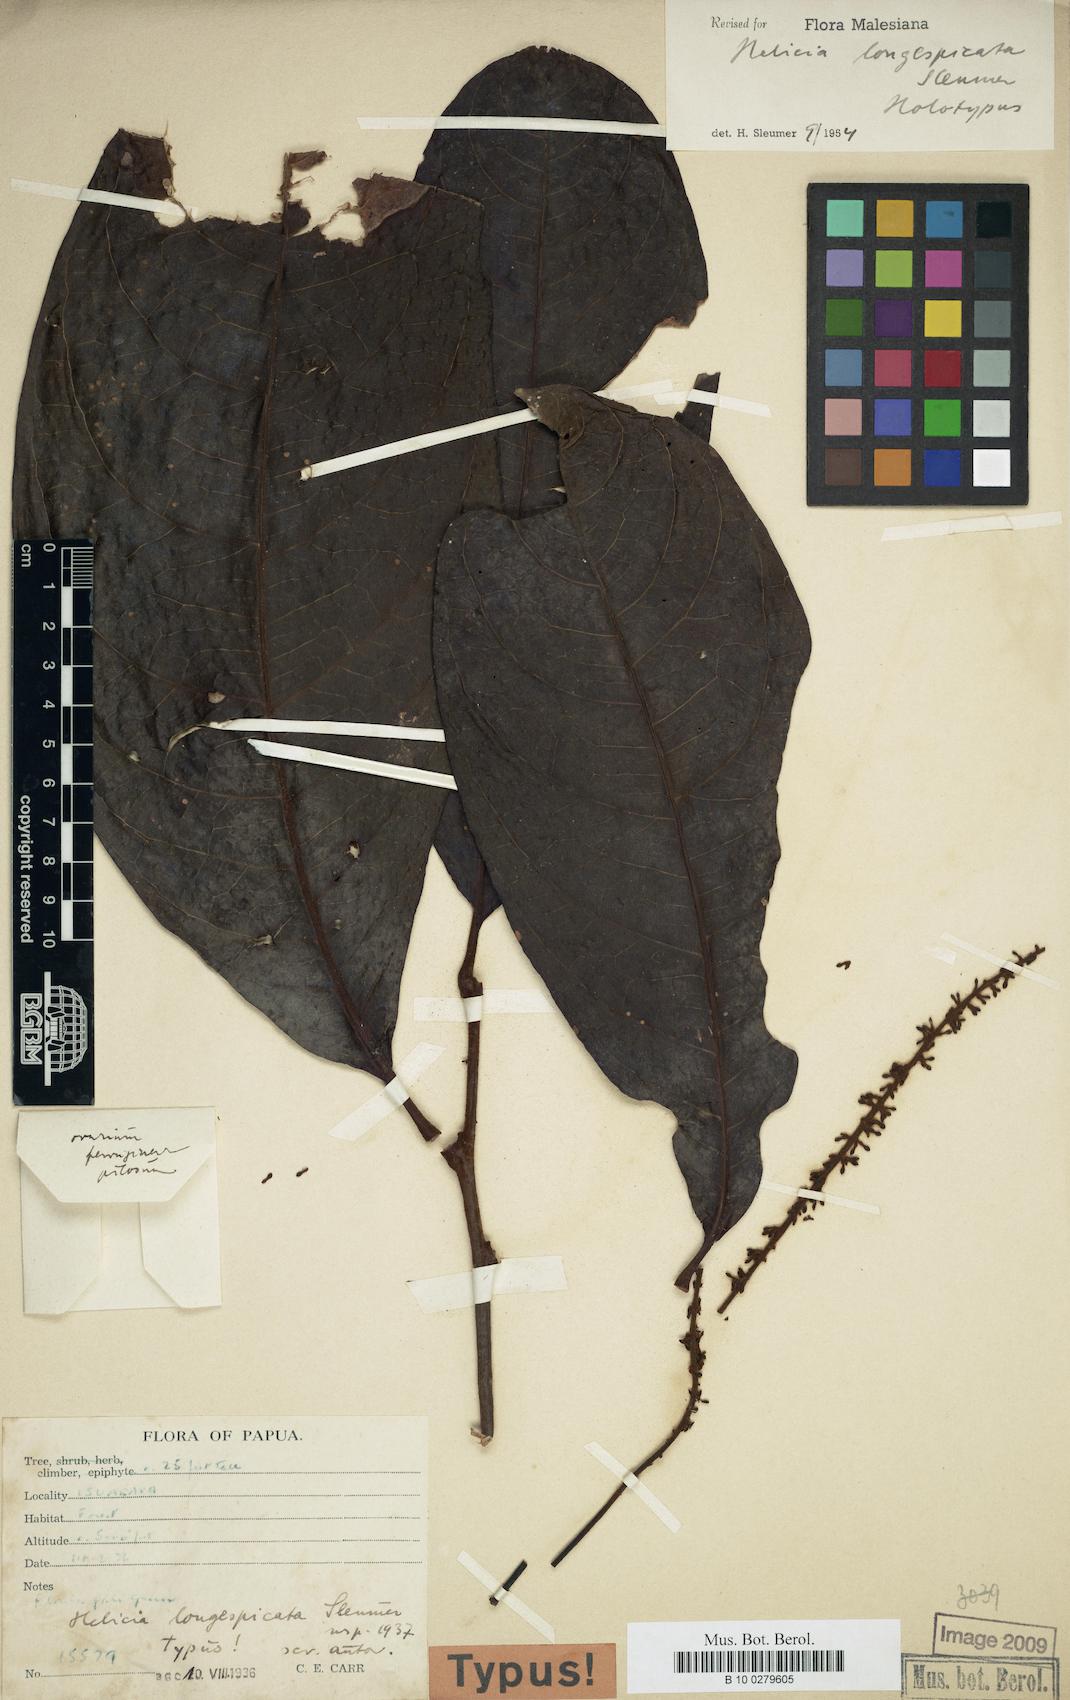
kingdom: Plantae
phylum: Tracheophyta
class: Magnoliopsida
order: Proteales
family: Proteaceae
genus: Helicia
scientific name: Helicia longespicata
